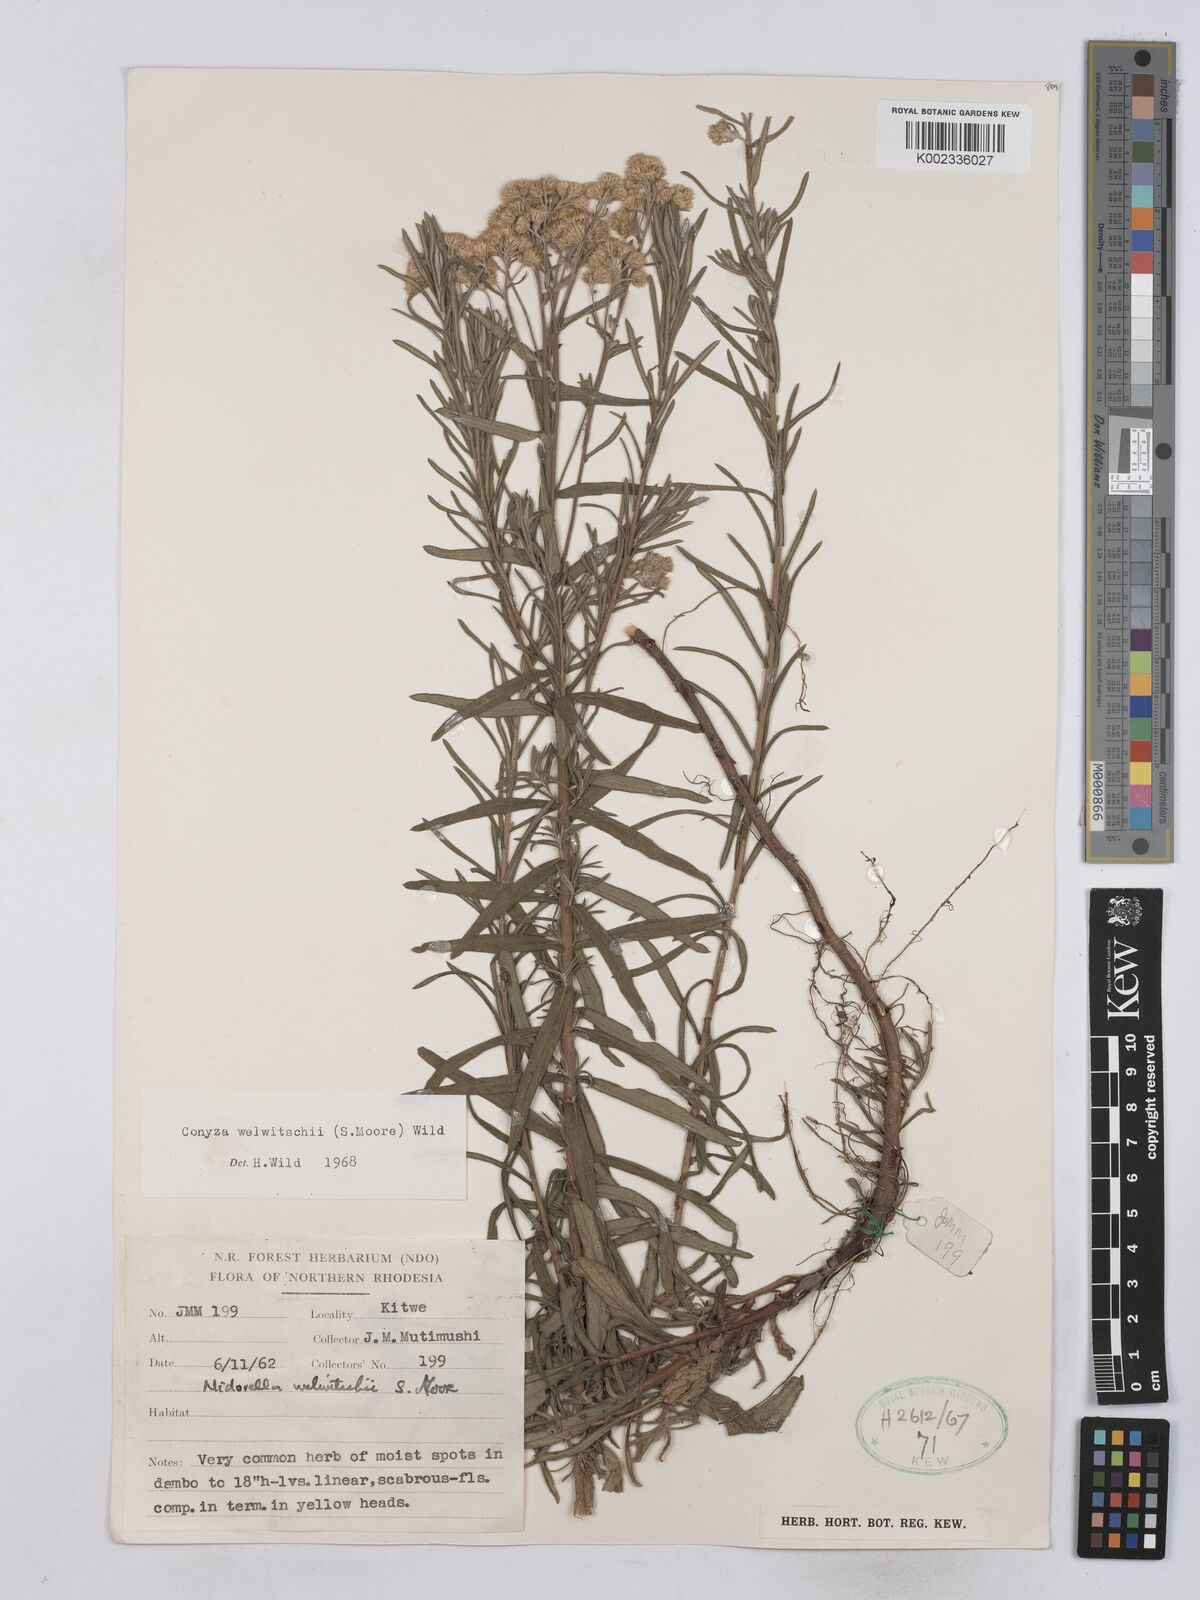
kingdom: Plantae
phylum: Tracheophyta
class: Magnoliopsida
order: Asterales
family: Asteraceae
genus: Nidorella
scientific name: Nidorella welwitschii
